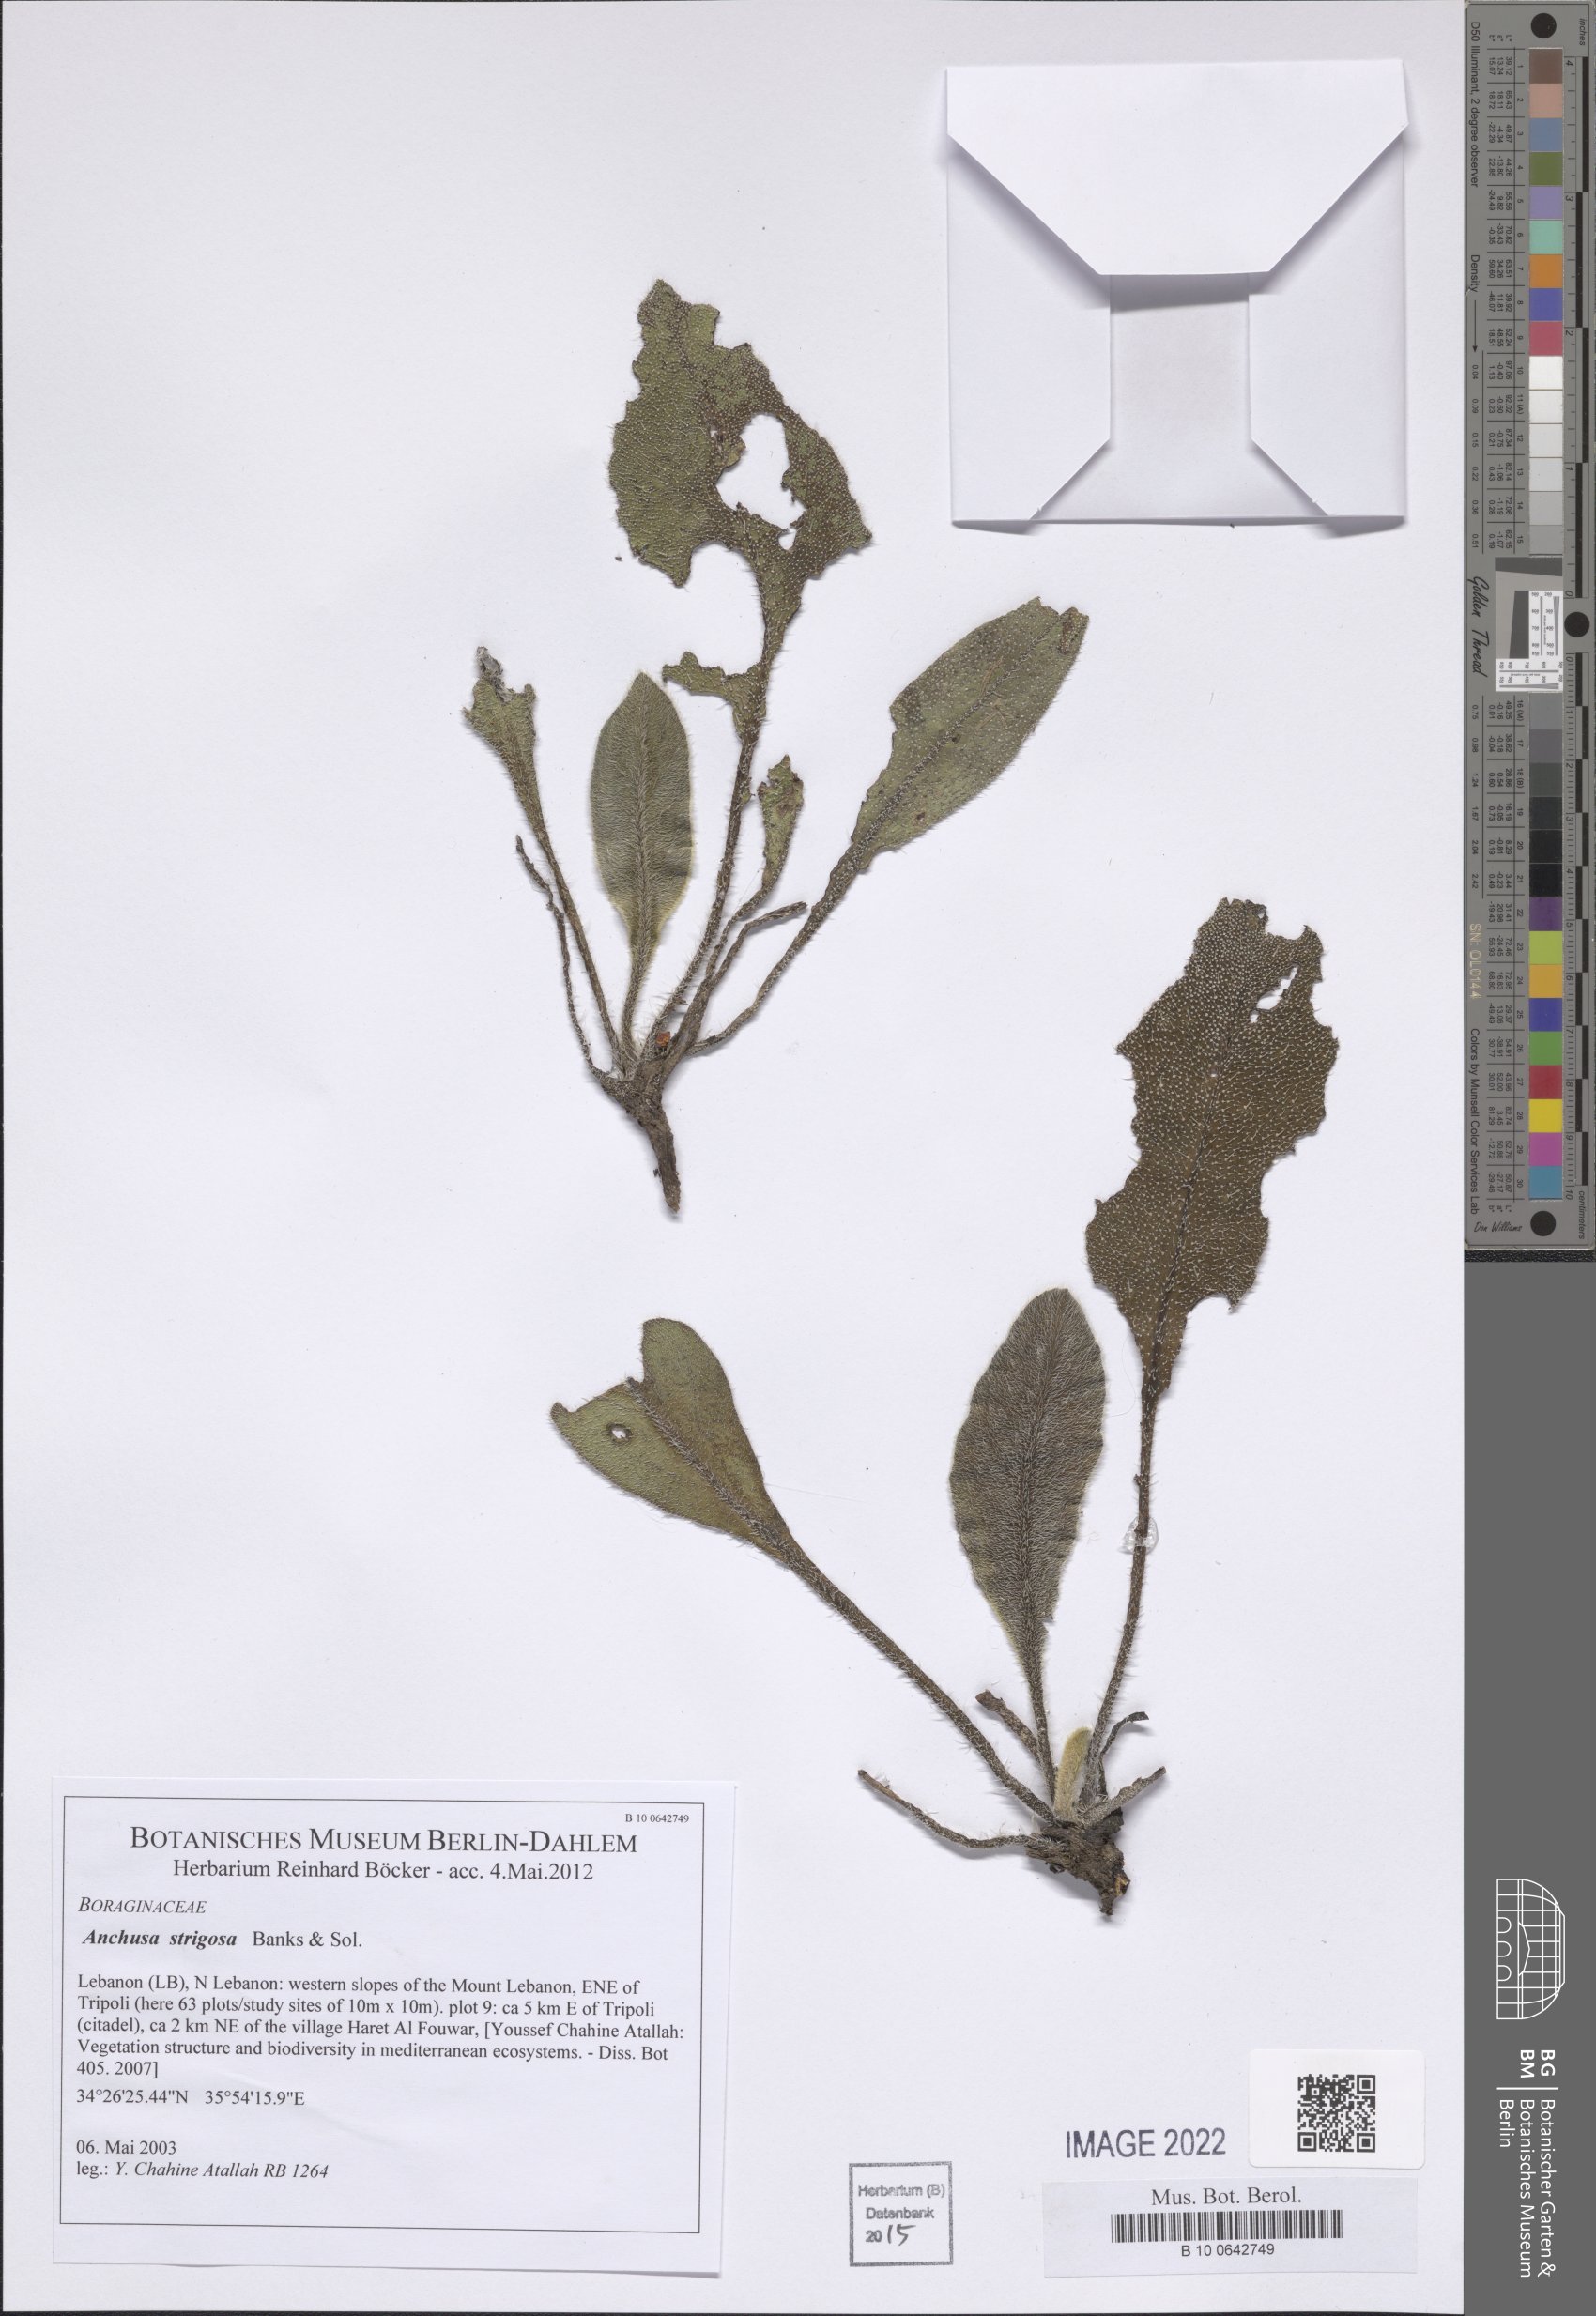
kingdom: Plantae
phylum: Tracheophyta
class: Magnoliopsida
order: Boraginales
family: Boraginaceae
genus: Anchusa
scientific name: Anchusa strigosa
